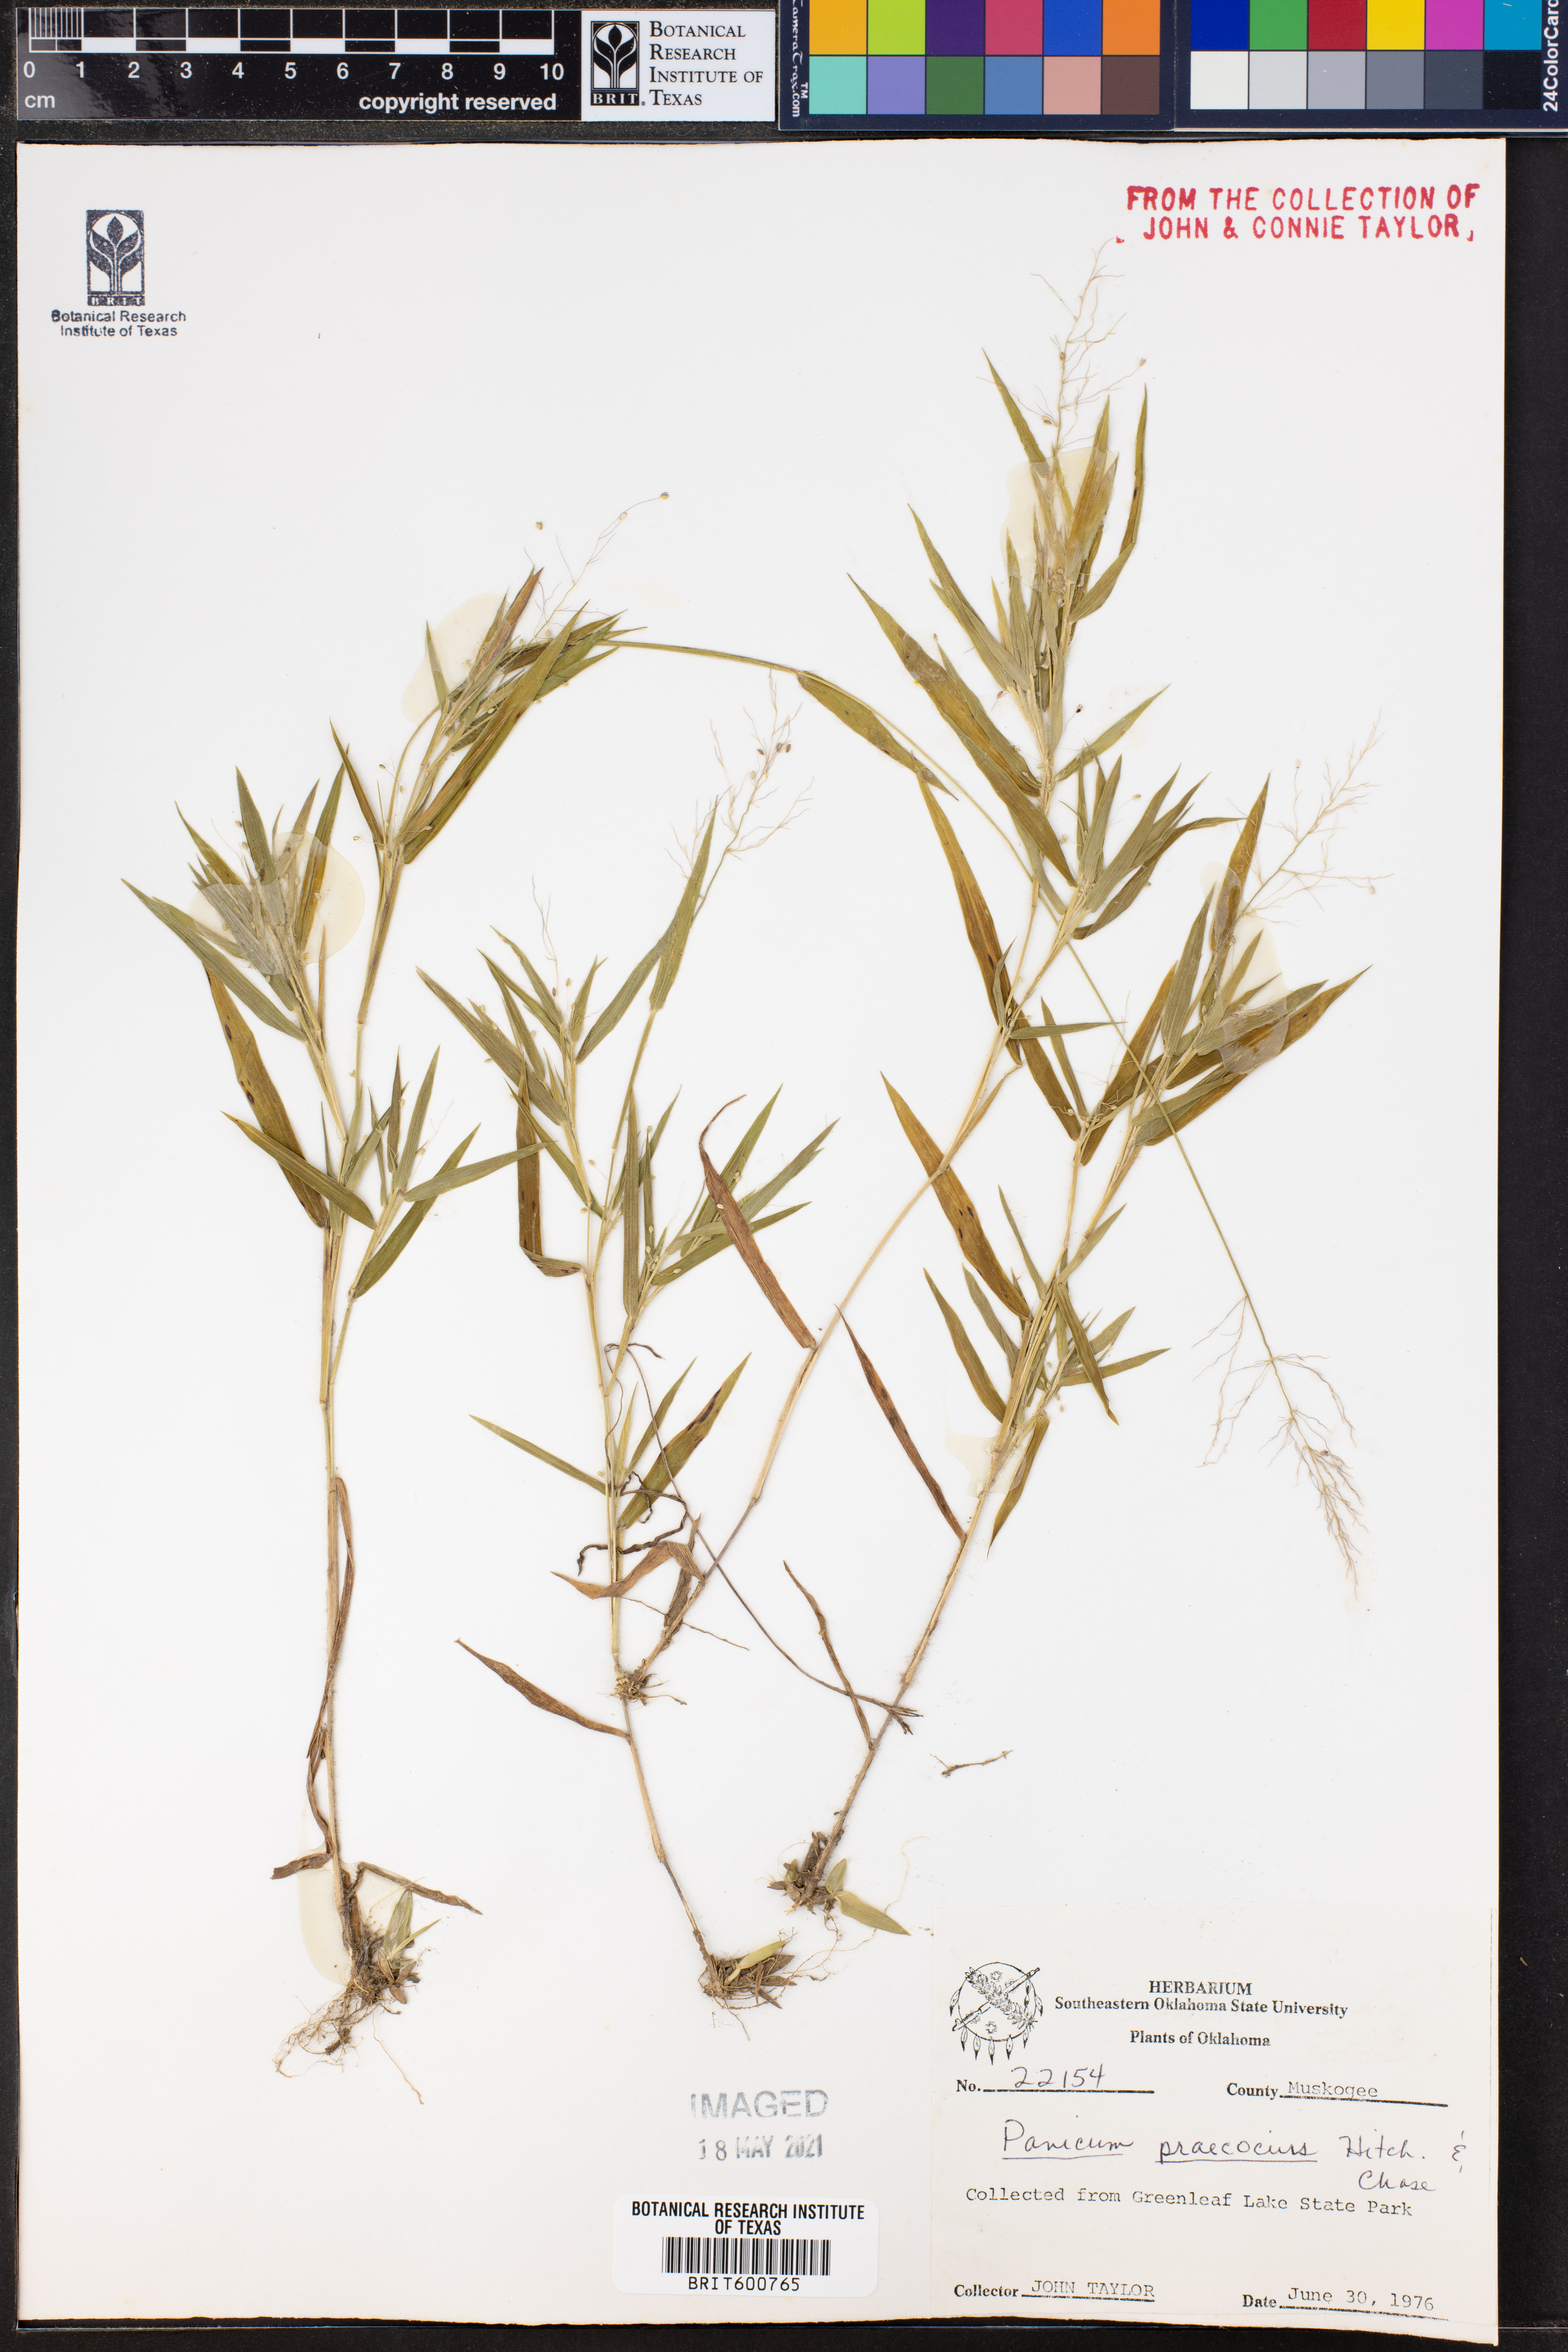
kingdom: Plantae
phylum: Tracheophyta
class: Liliopsida
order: Poales
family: Poaceae
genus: Dichanthelium
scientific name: Dichanthelium praecocius
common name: Early-branching panicgrass
